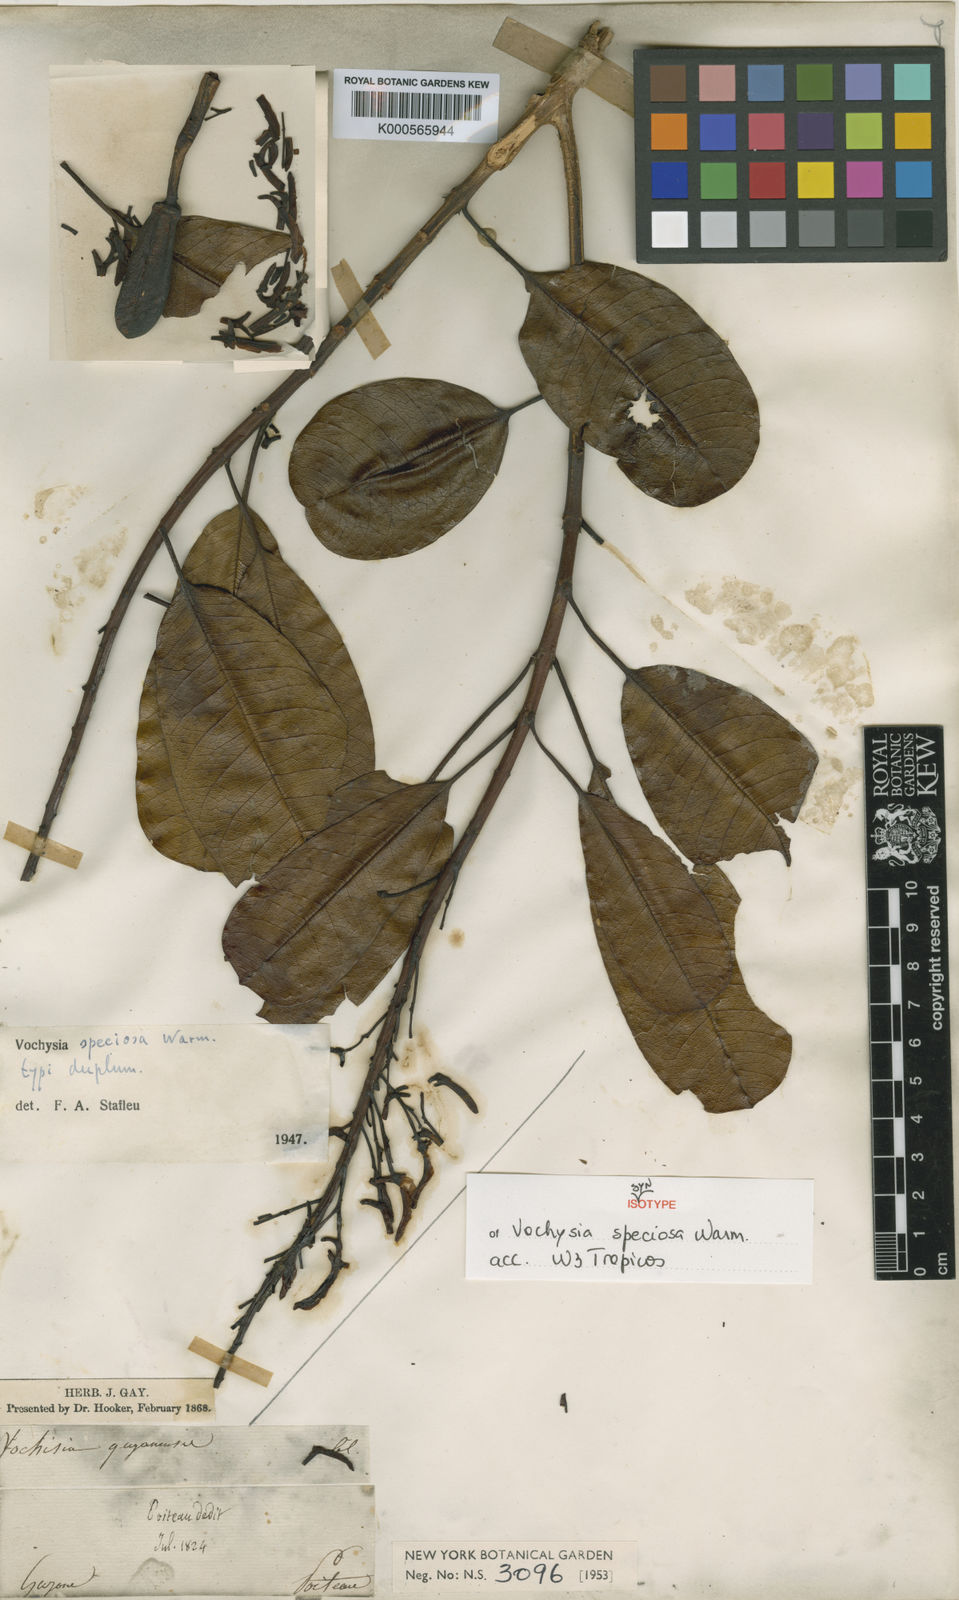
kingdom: Plantae
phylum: Tracheophyta
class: Magnoliopsida
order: Myrtales
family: Vochysiaceae
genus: Vochysia
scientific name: Vochysia speciosa
